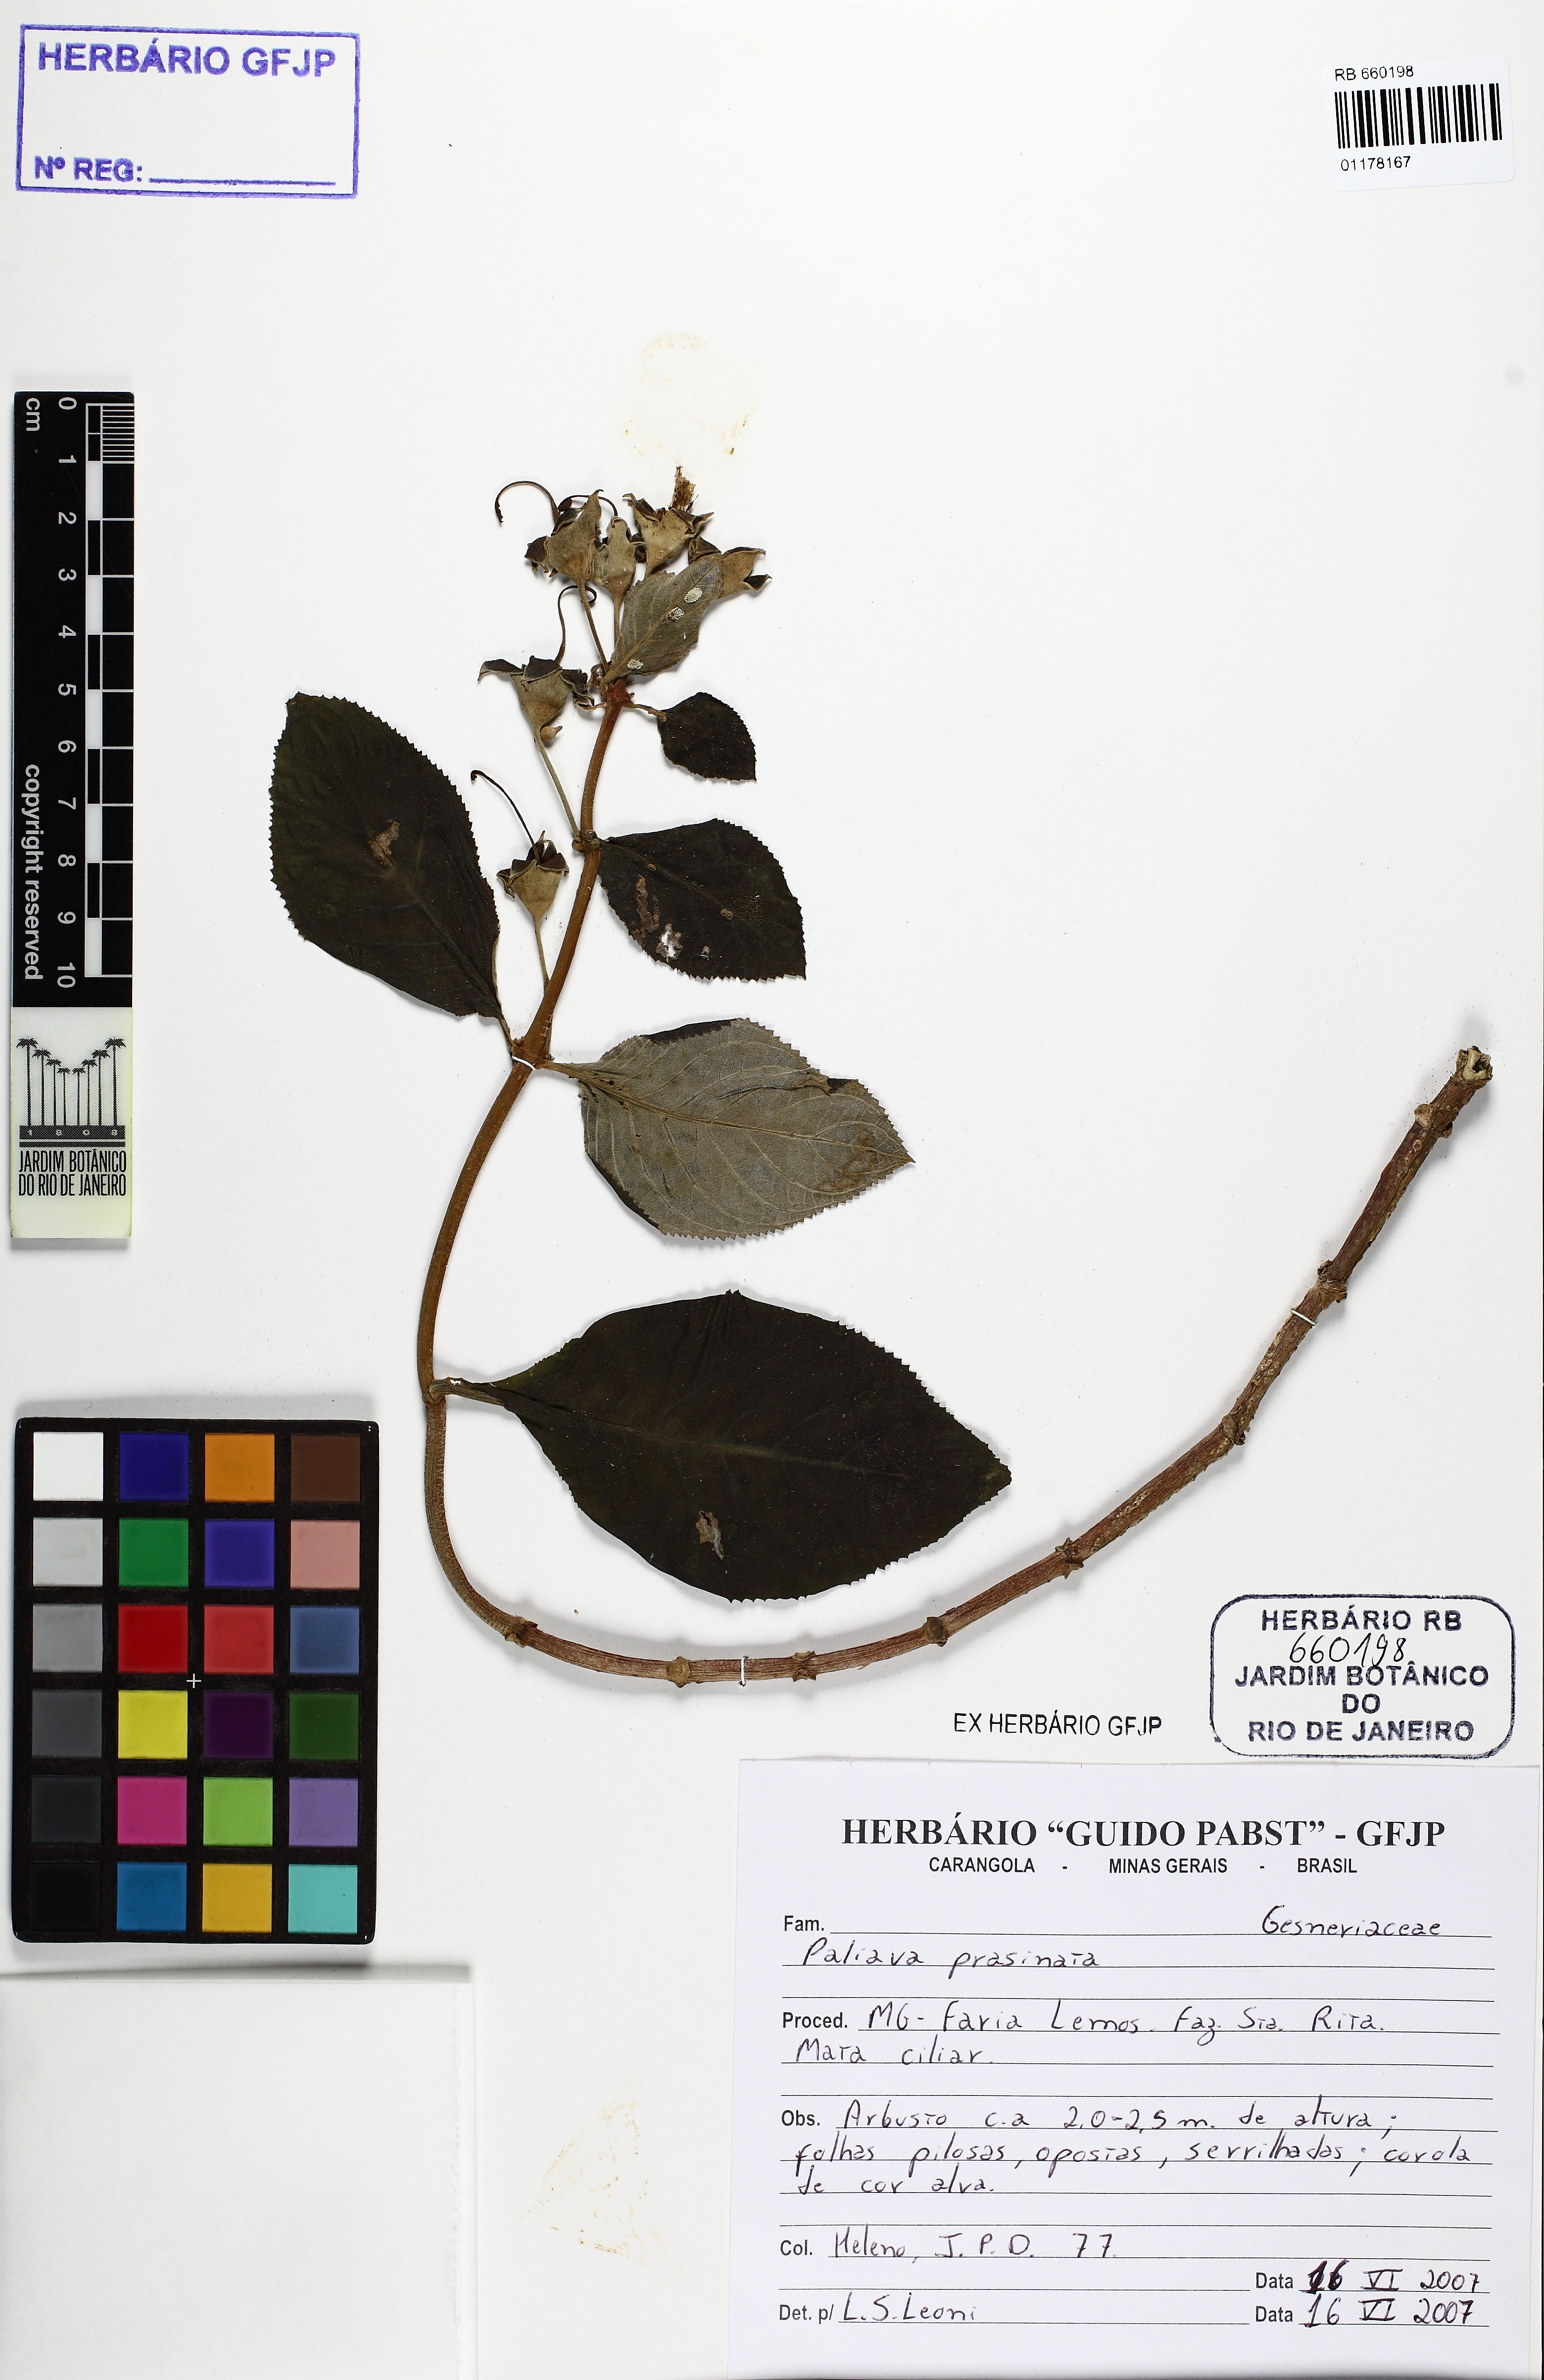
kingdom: Plantae
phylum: Tracheophyta
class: Magnoliopsida
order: Lamiales
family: Gesneriaceae
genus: Paliavana
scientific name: Paliavana prasinata
